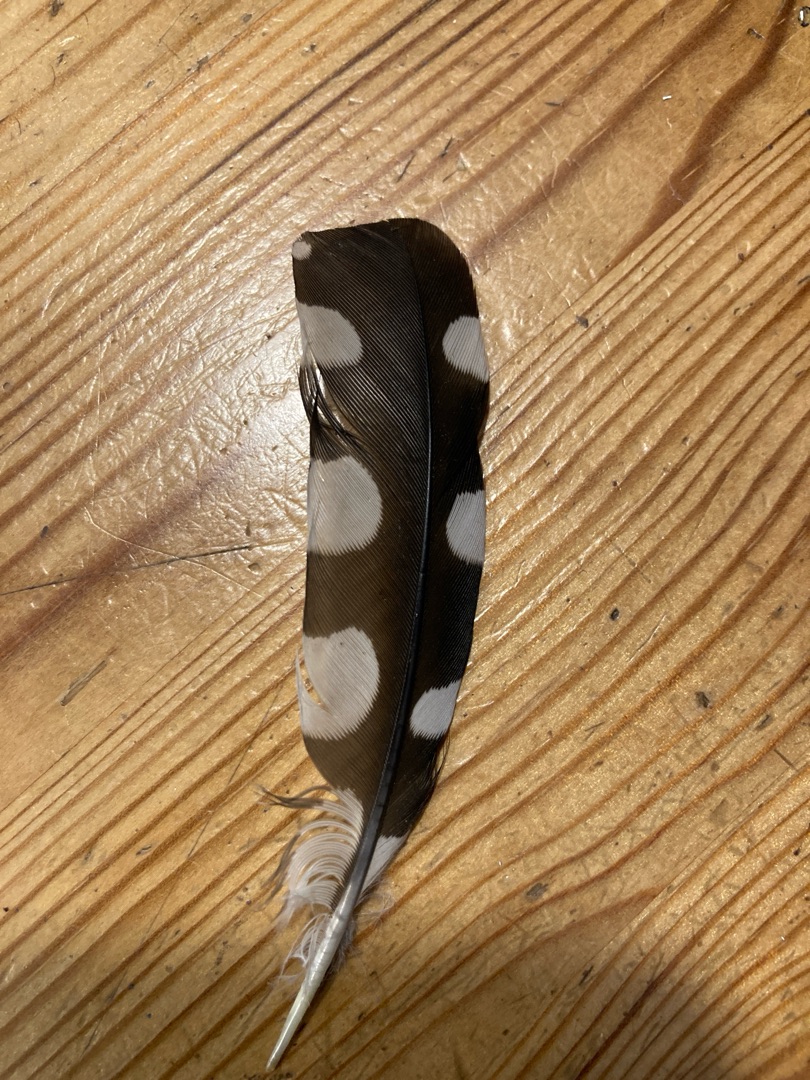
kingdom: Animalia
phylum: Chordata
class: Aves
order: Piciformes
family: Picidae
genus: Dendrocopos
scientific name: Dendrocopos major
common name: Stor flagspætte
